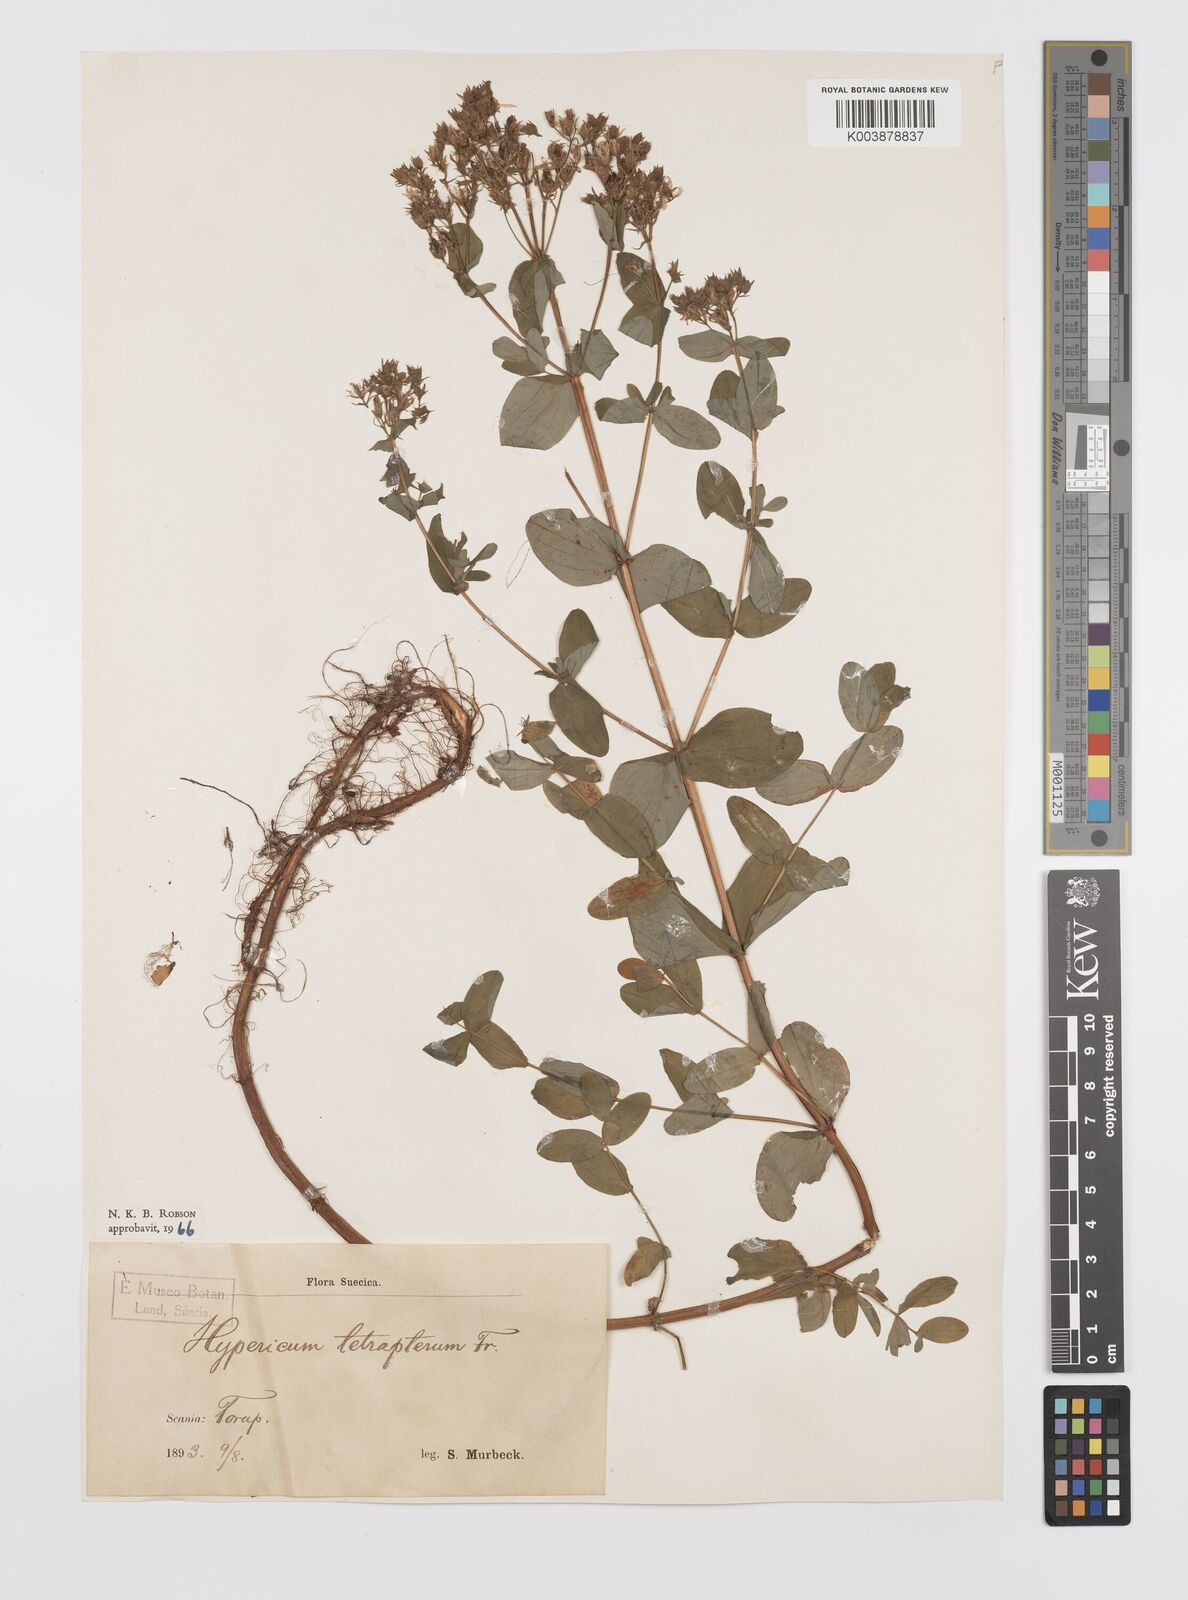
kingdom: Plantae
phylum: Tracheophyta
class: Magnoliopsida
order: Malpighiales
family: Hypericaceae
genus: Hypericum
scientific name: Hypericum tetrapterum
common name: Square-stalked st. john's-wort
